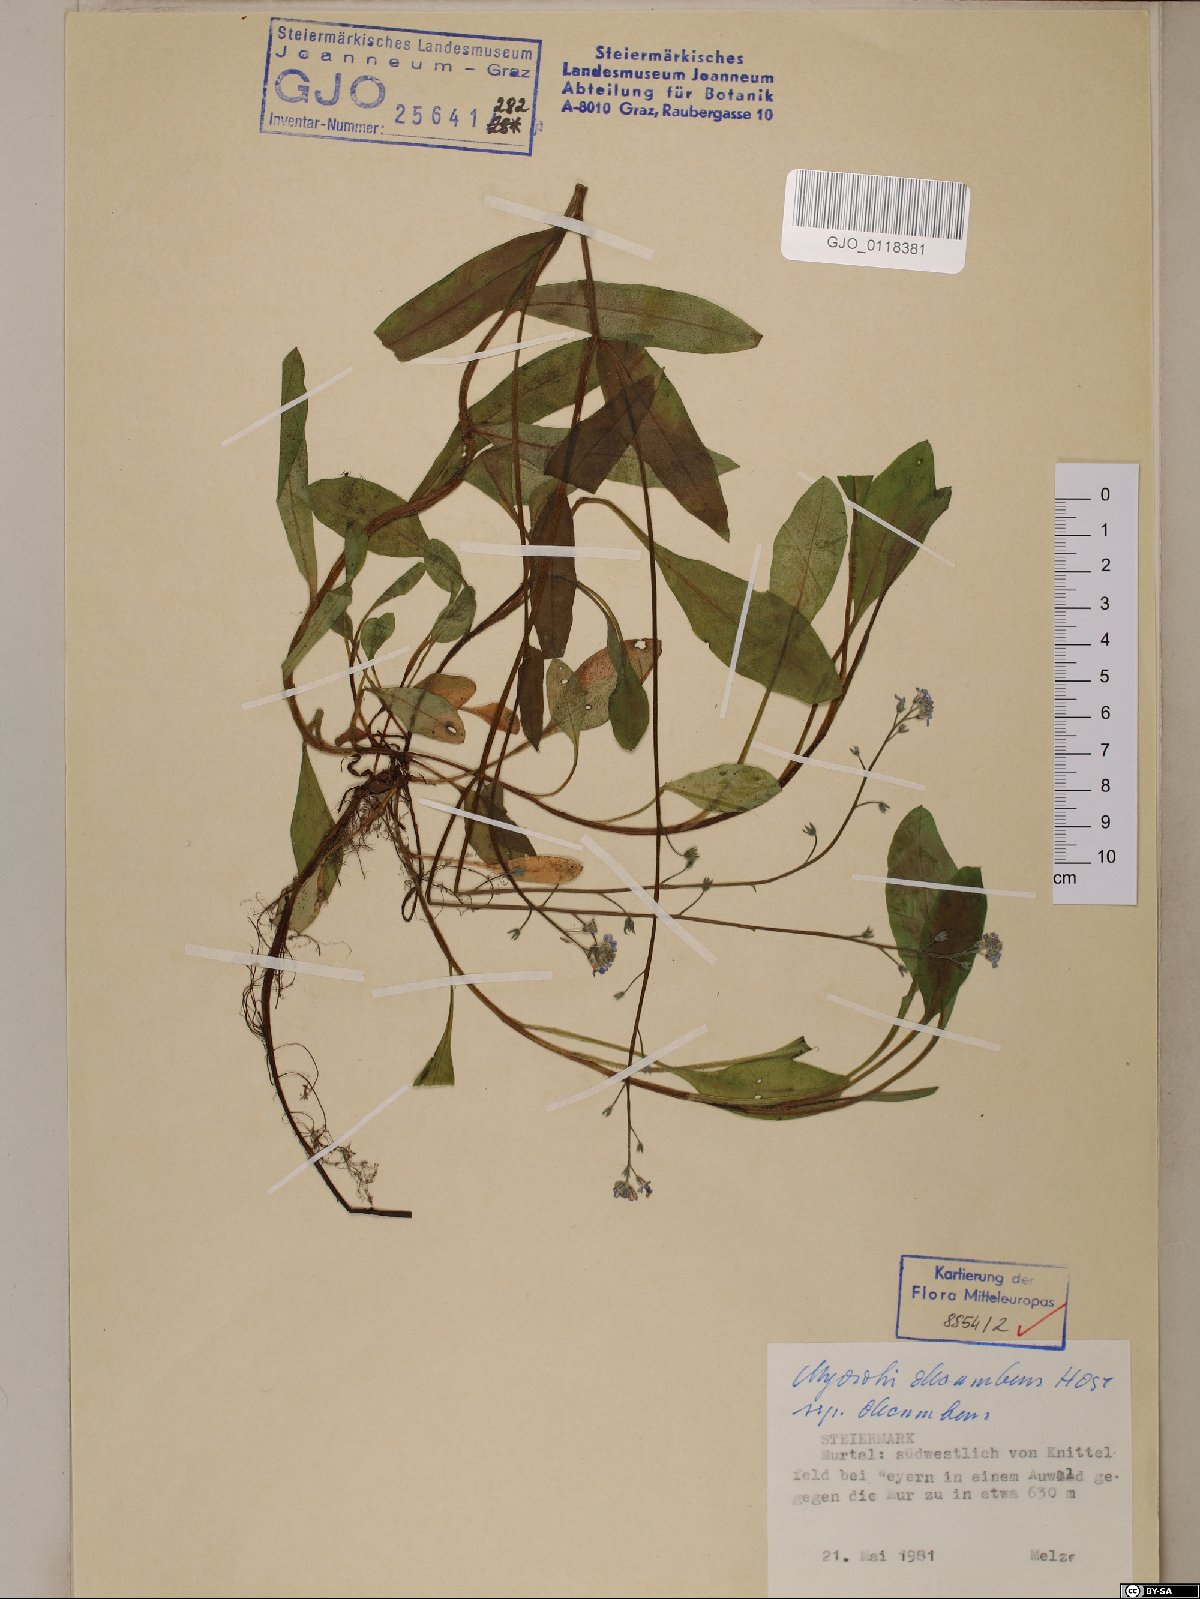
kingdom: Plantae
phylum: Tracheophyta
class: Magnoliopsida
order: Boraginales
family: Boraginaceae
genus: Myosotis
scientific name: Myosotis decumbens
